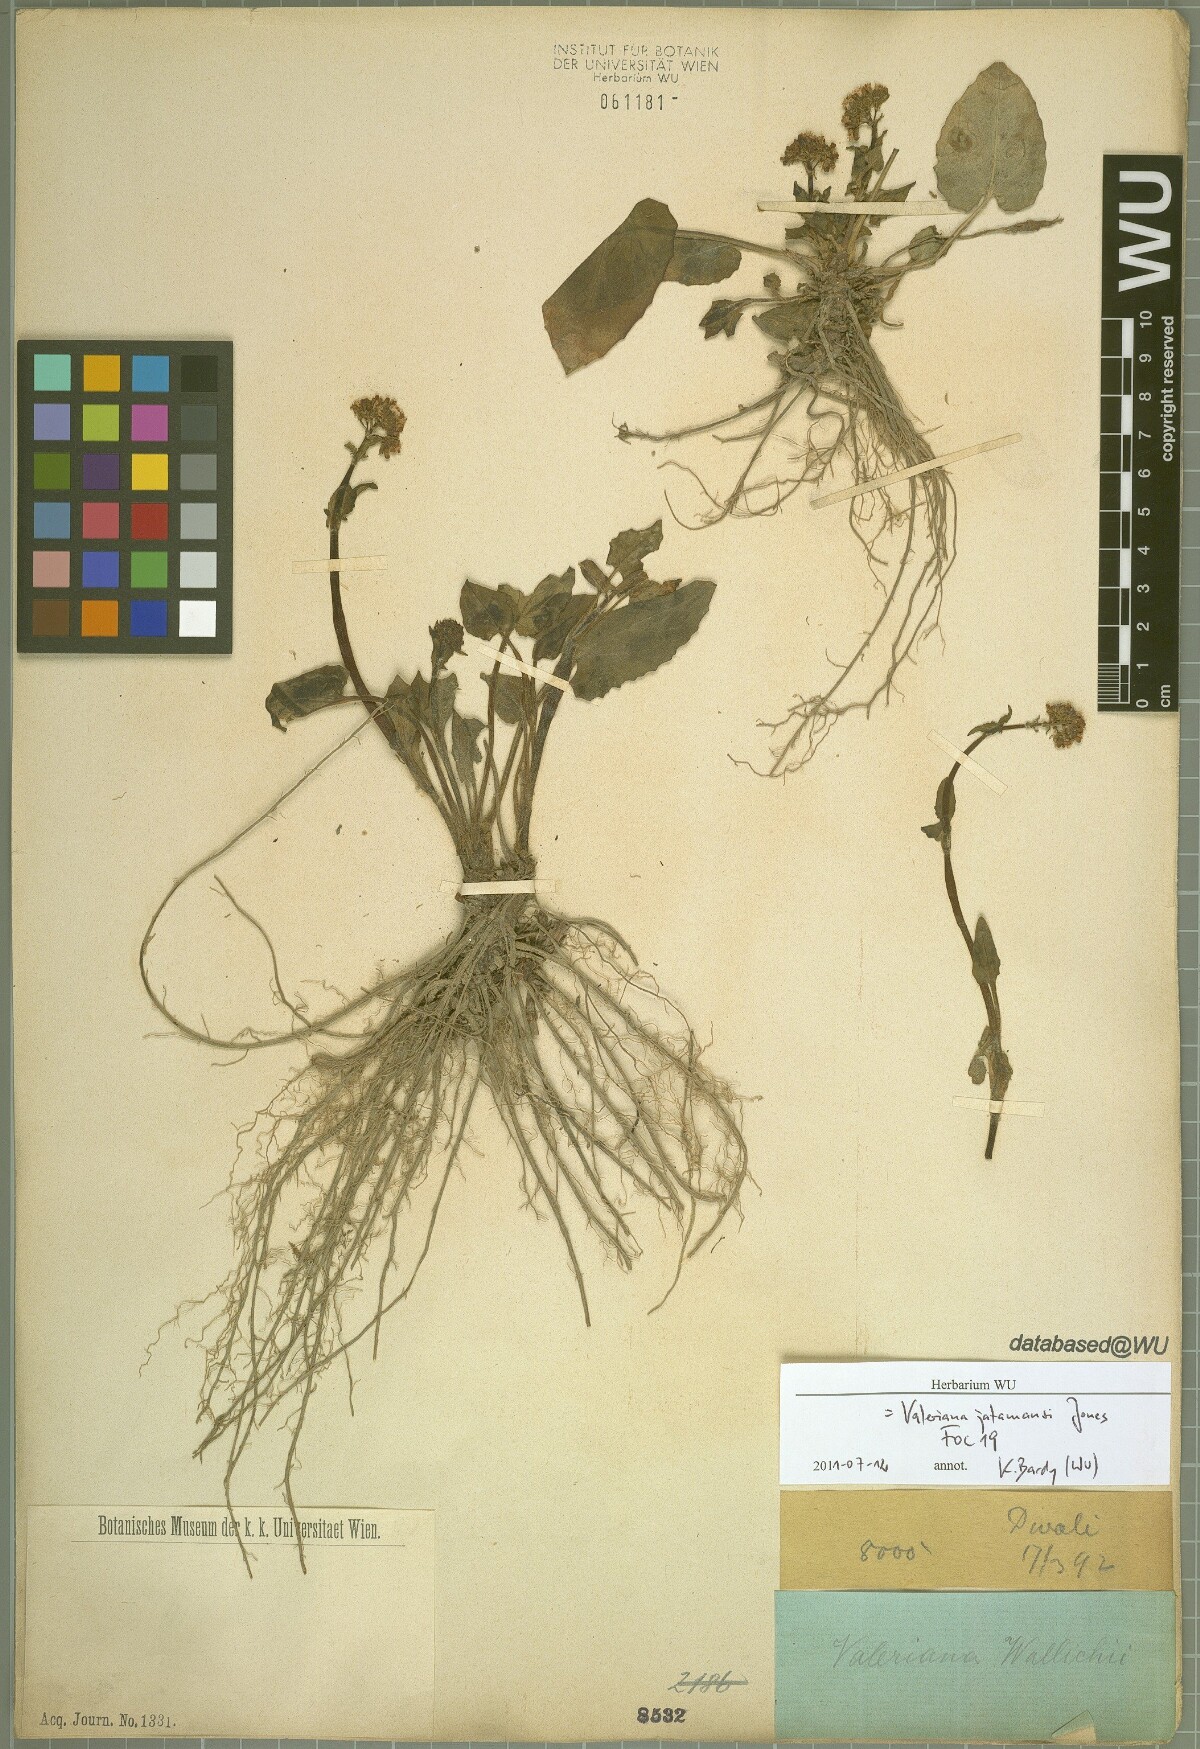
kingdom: Plantae
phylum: Tracheophyta
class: Magnoliopsida
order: Dipsacales
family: Caprifoliaceae
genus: Valeriana
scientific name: Valeriana jatamansi
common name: Indian valerian
